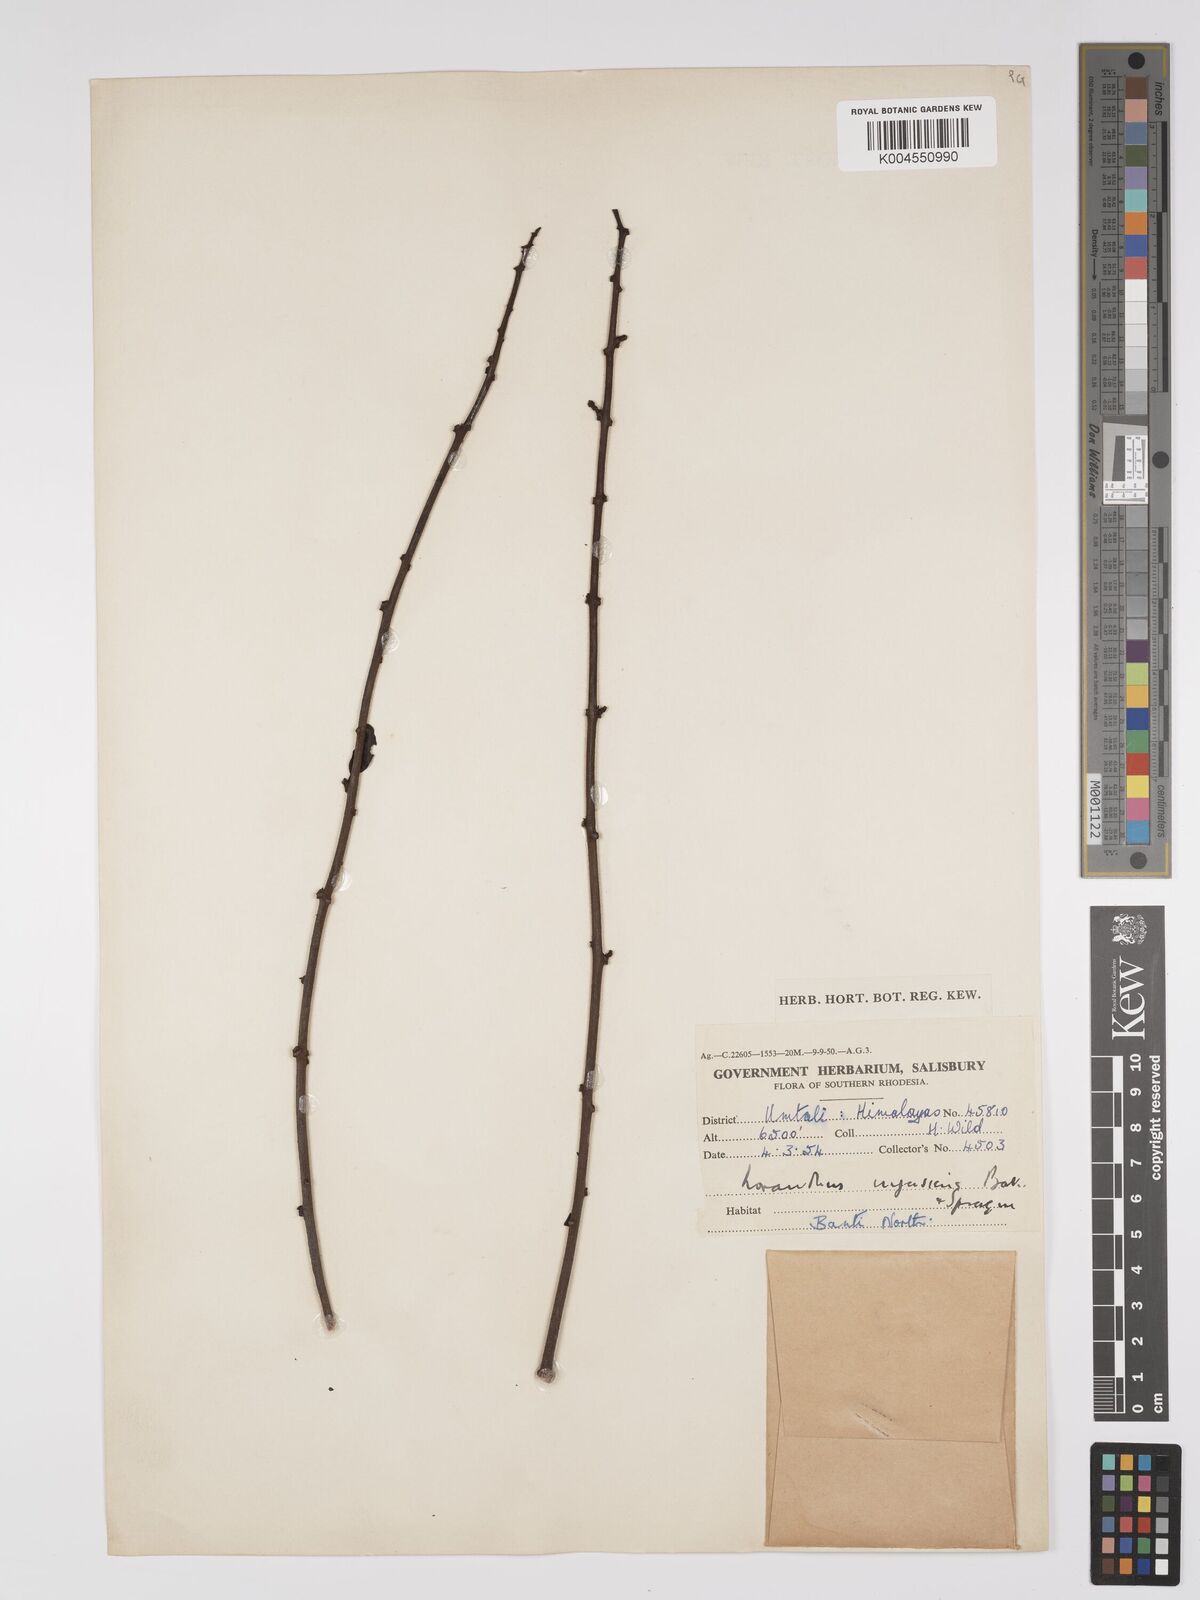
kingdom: Plantae
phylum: Tracheophyta
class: Magnoliopsida
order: Santalales
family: Loranthaceae
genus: Agelanthus
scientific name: Agelanthus lancifolius
